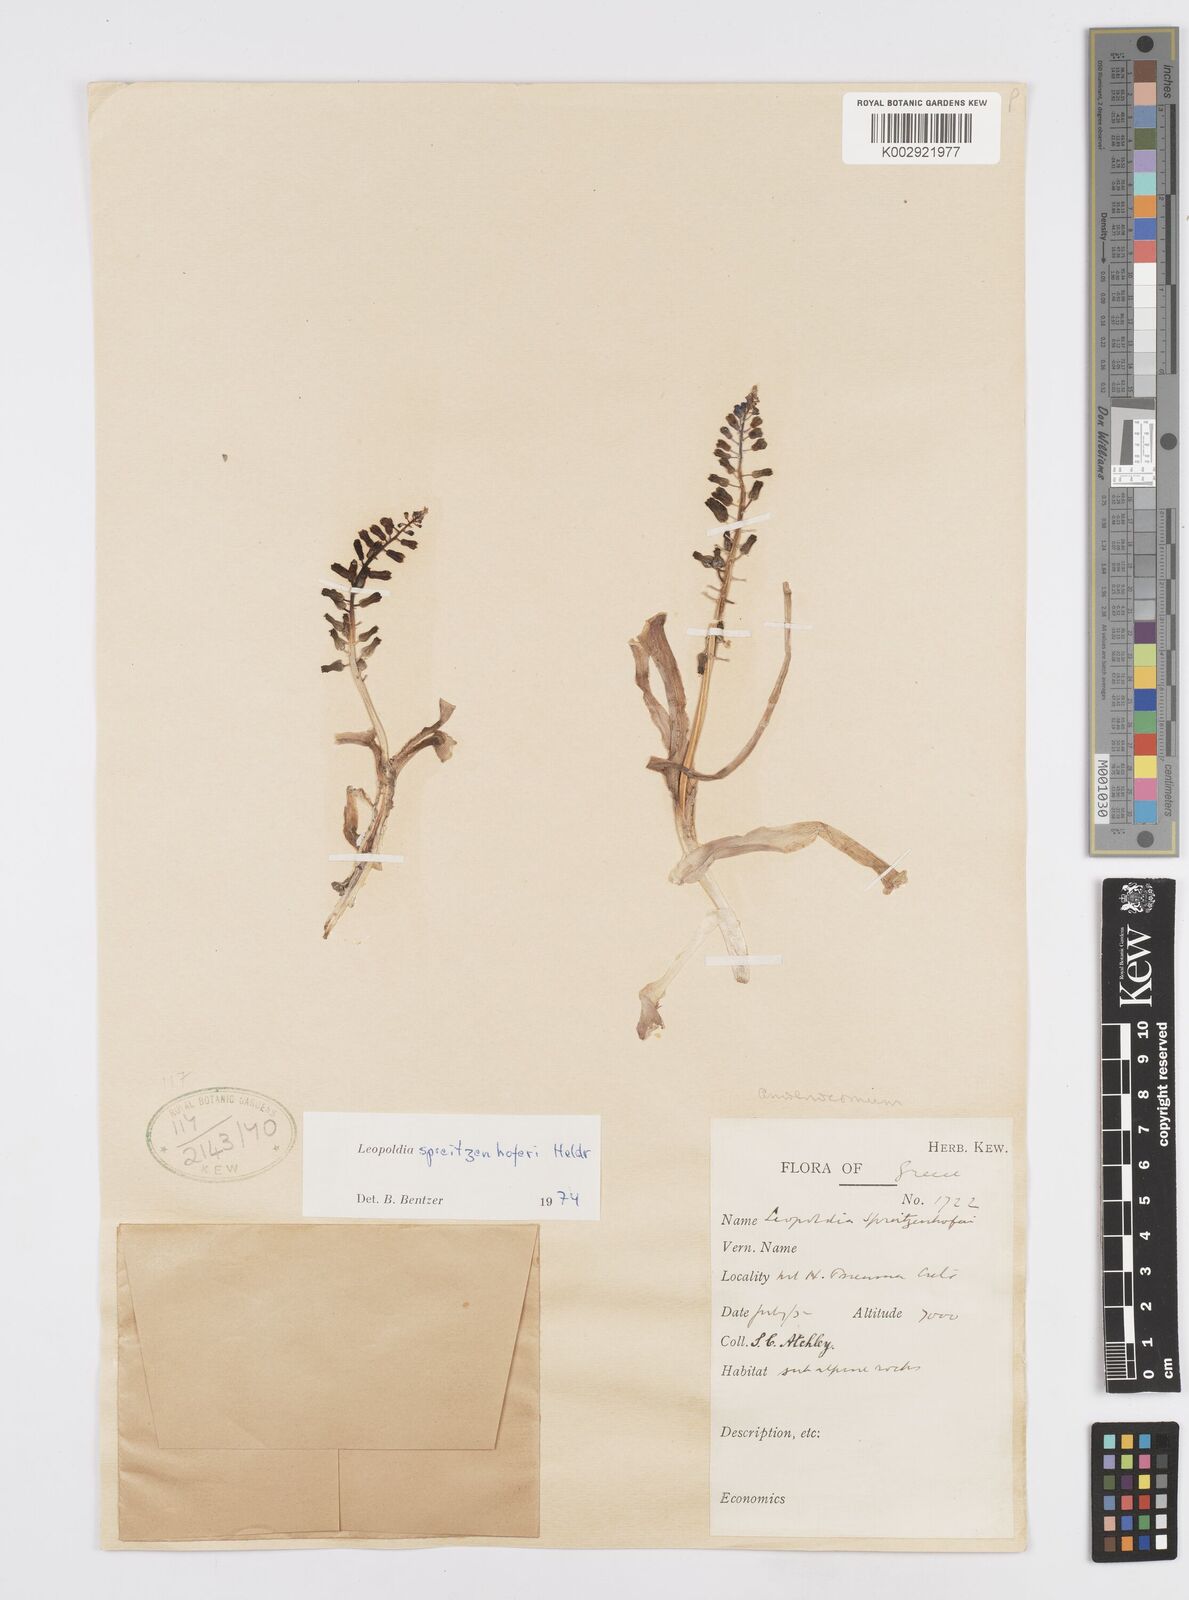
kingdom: Plantae
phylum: Tracheophyta
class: Liliopsida
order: Asparagales
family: Asparagaceae
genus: Muscari
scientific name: Muscari spreitzenhoferi
